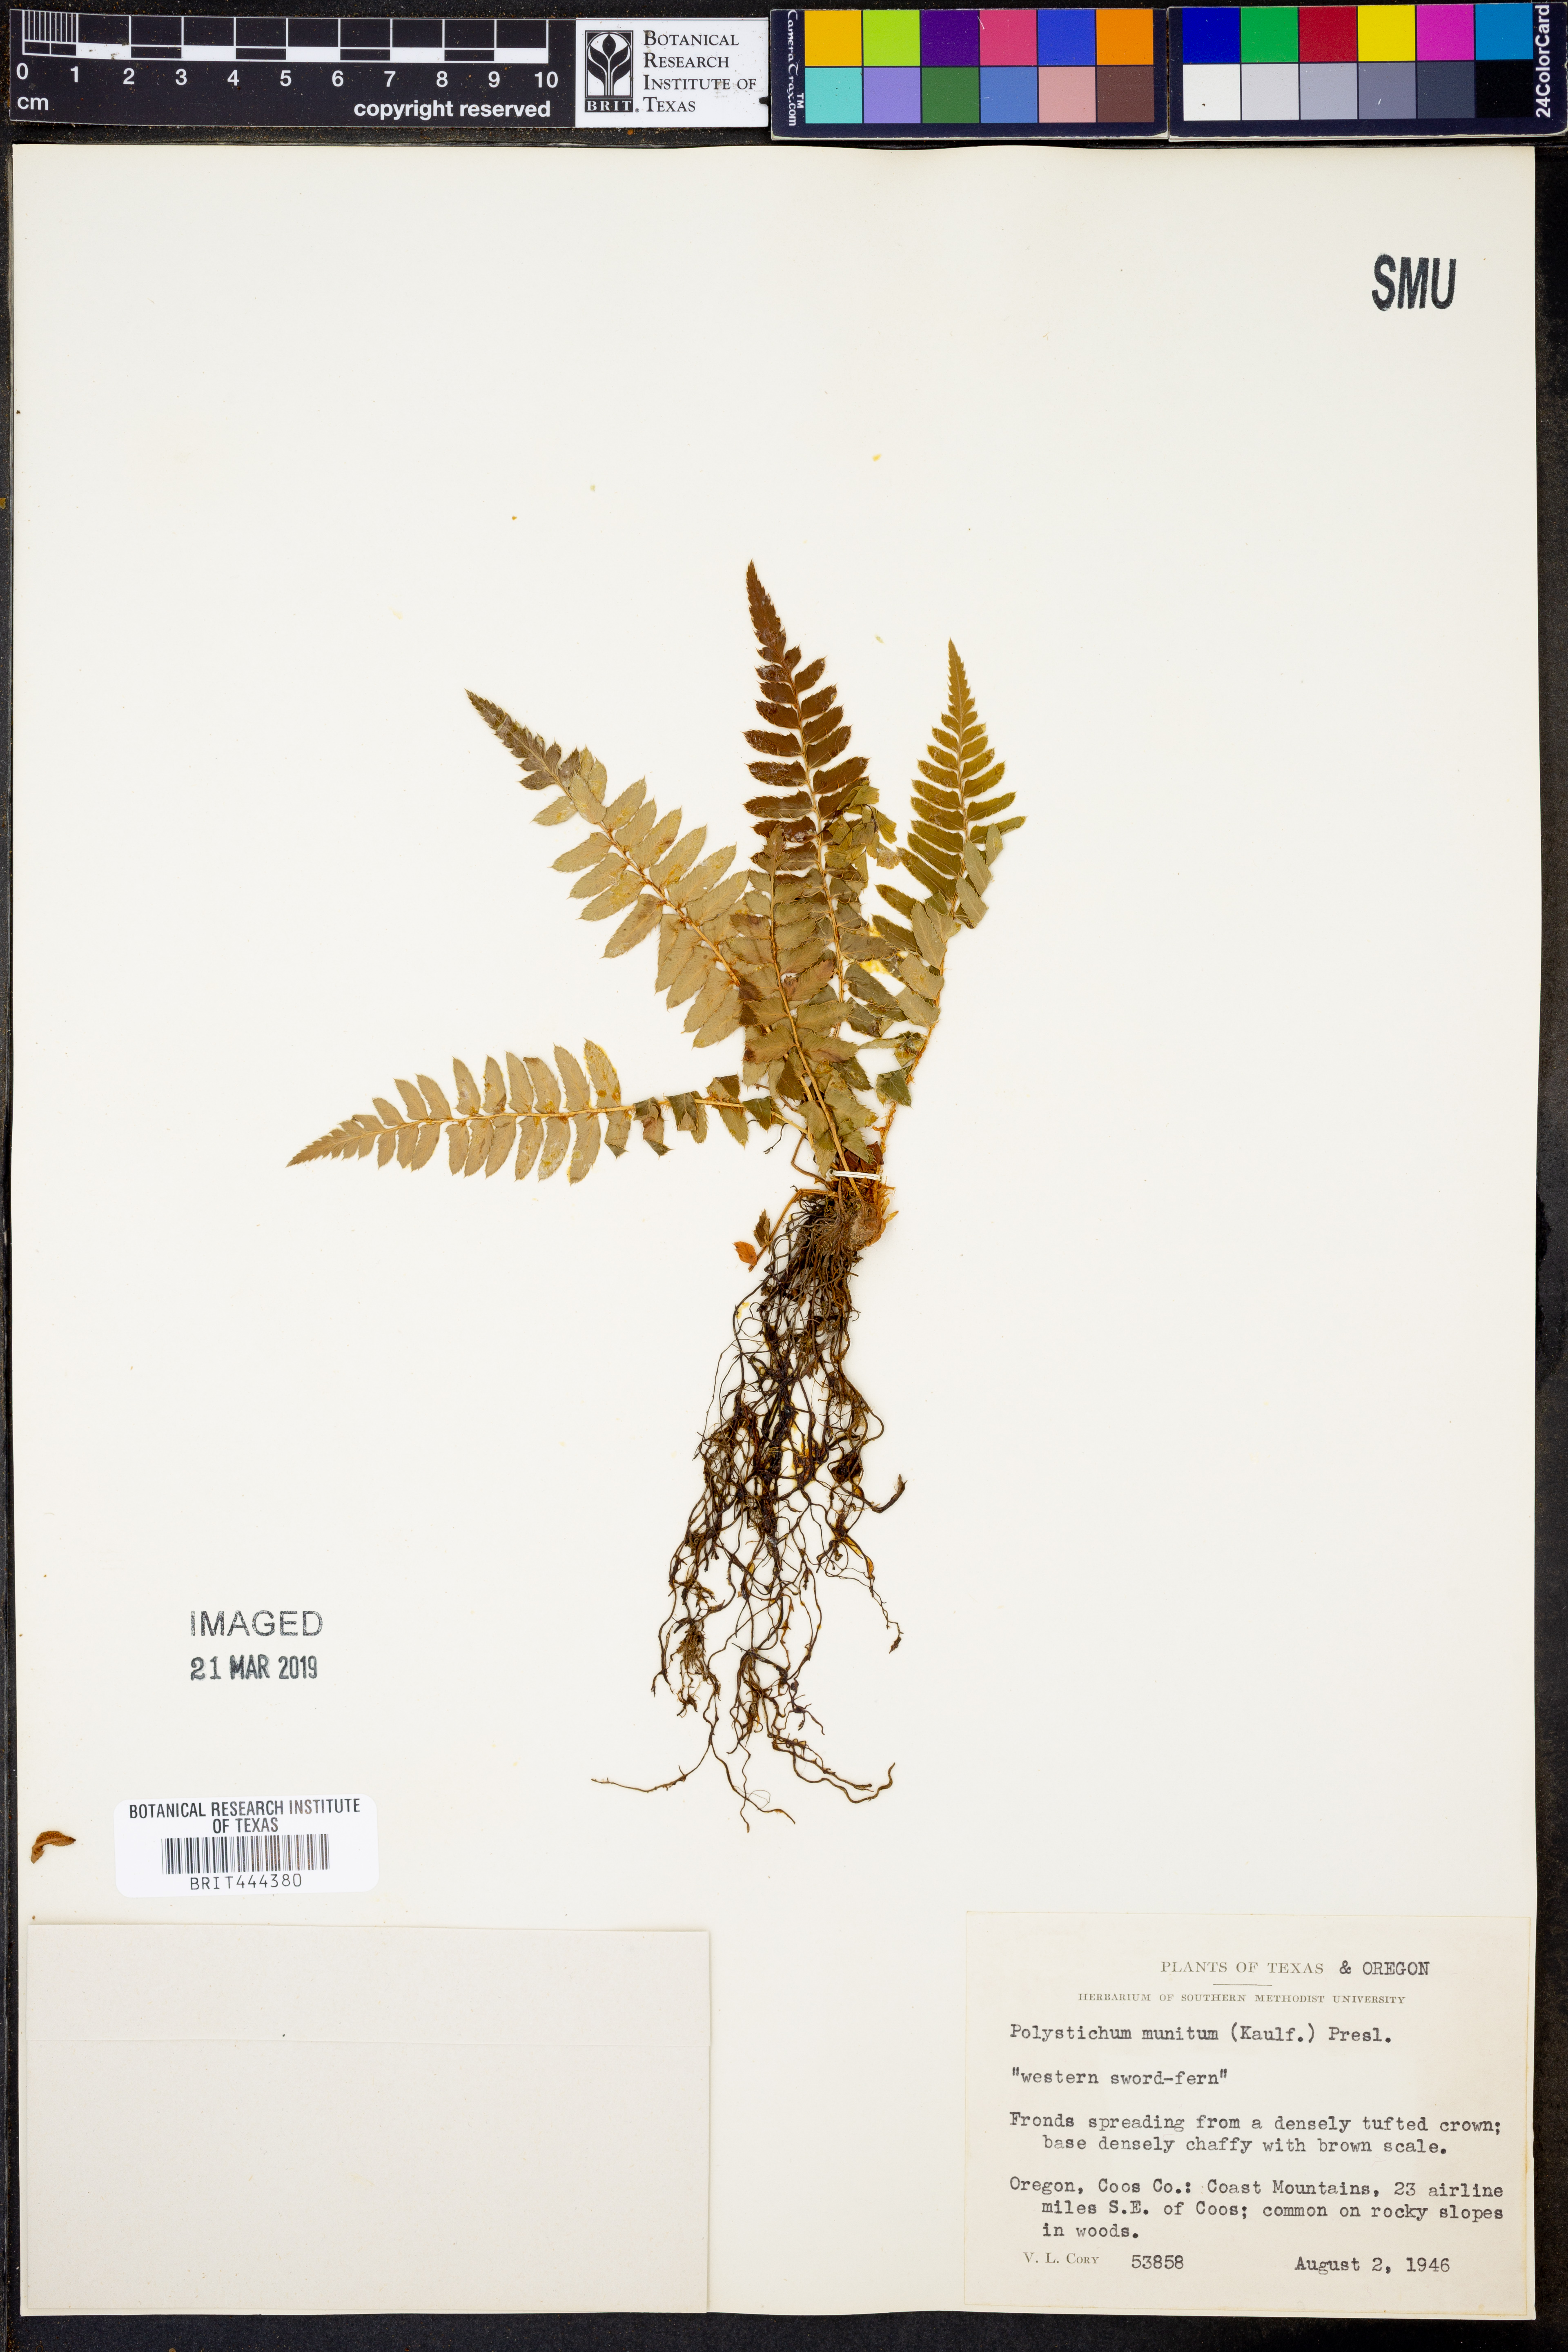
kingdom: Plantae
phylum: Tracheophyta
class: Polypodiopsida
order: Polypodiales
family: Dryopteridaceae
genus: Polystichum
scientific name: Polystichum munitum
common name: Western sword-fern
